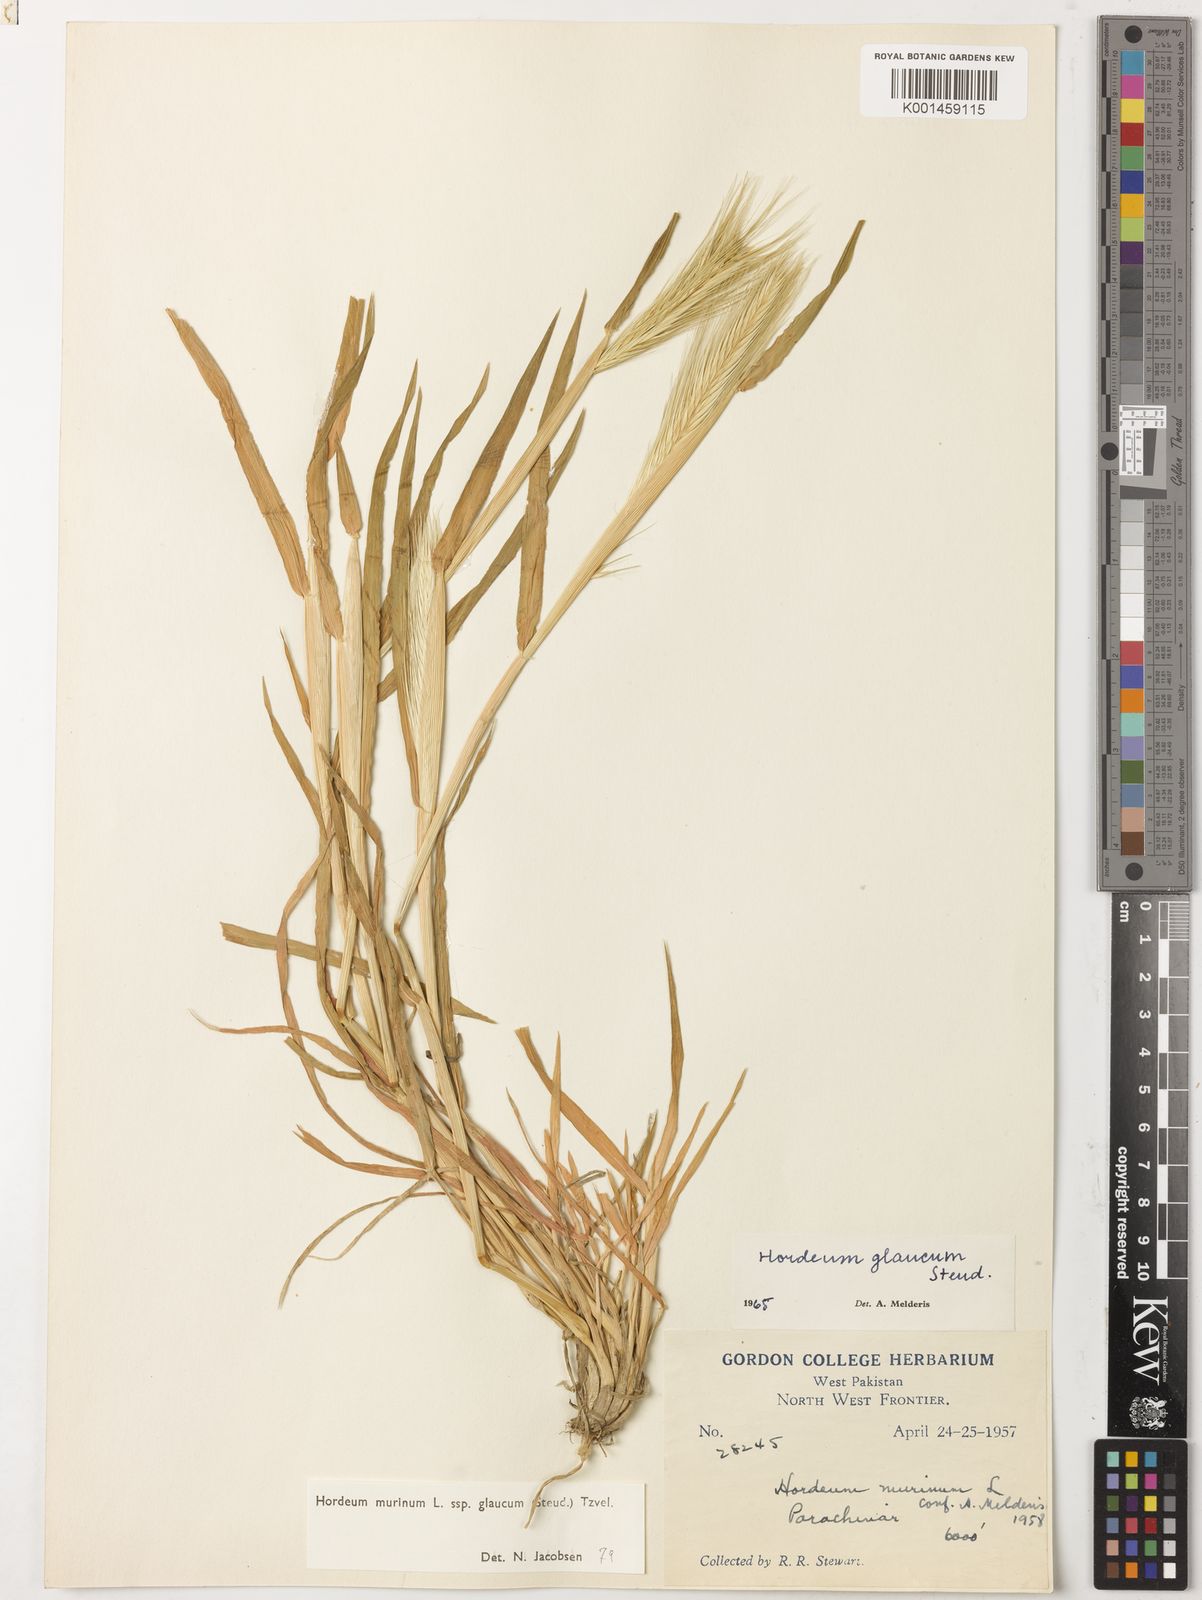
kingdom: Plantae
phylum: Tracheophyta
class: Liliopsida
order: Poales
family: Poaceae
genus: Hordeum
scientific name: Hordeum murinum
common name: Wall barley
